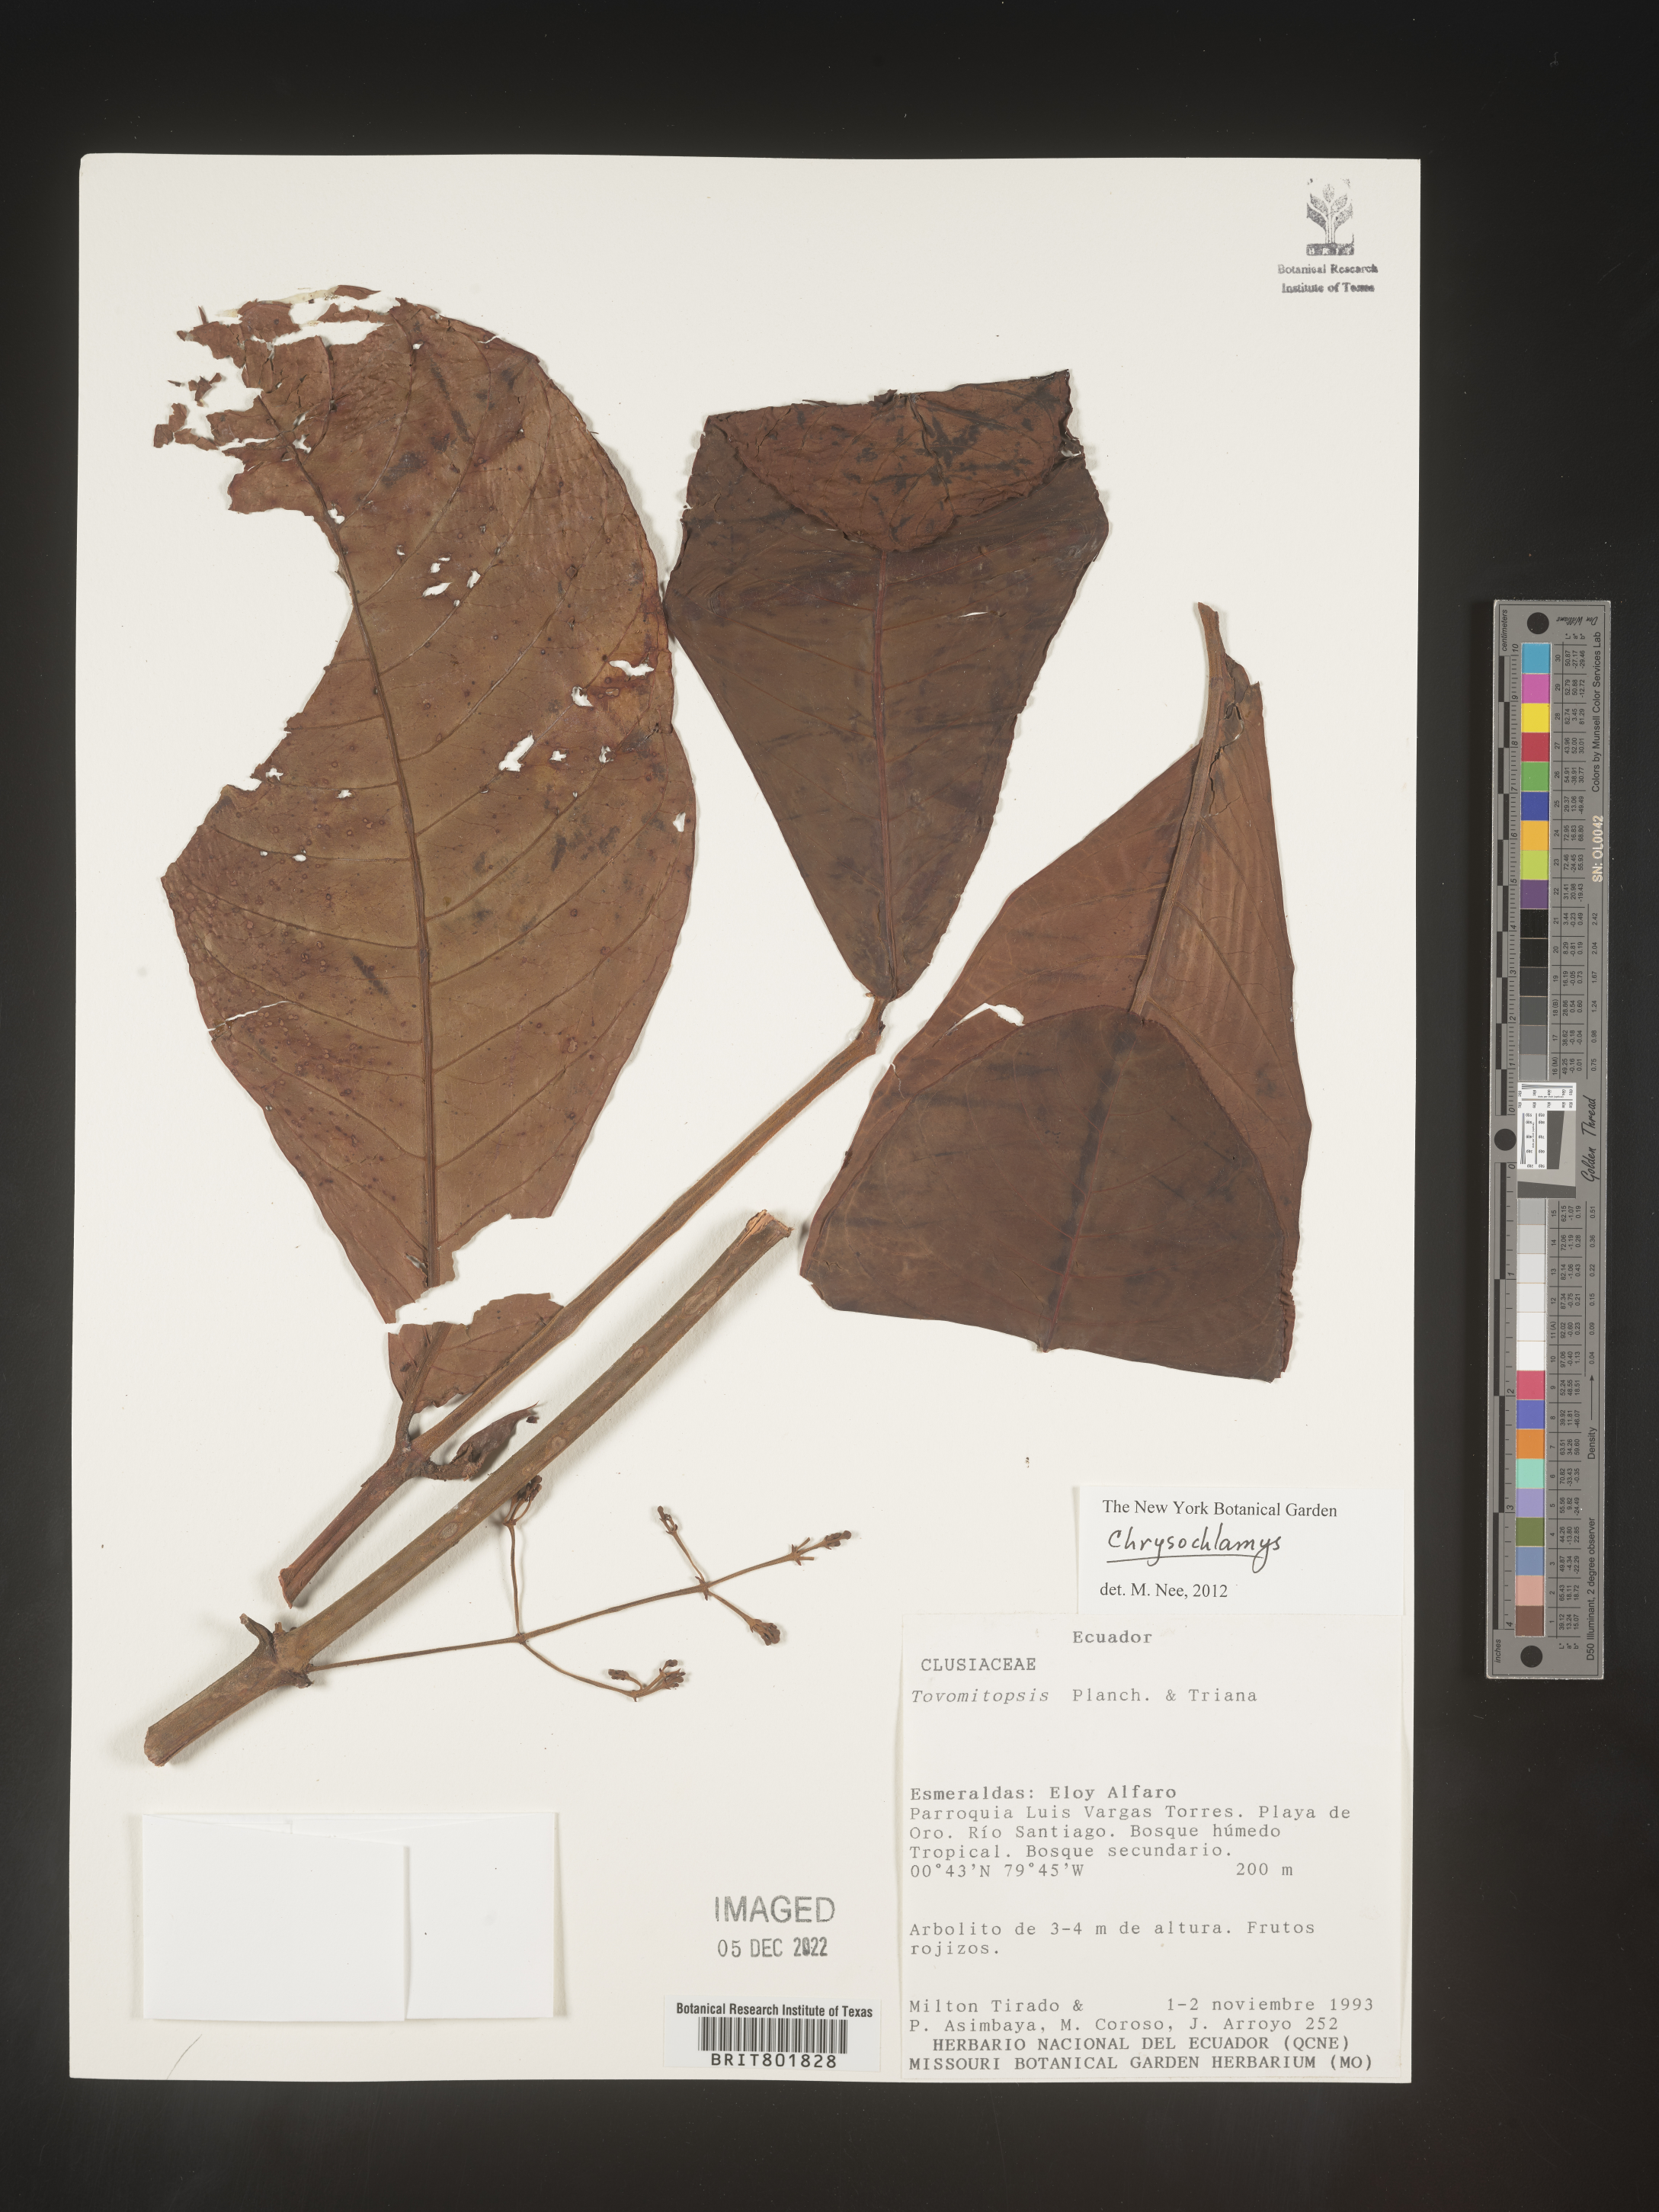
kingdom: Plantae
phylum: Tracheophyta
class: Magnoliopsida
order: Malpighiales
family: Clusiaceae
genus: Chrysochlamys
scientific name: Chrysochlamys
